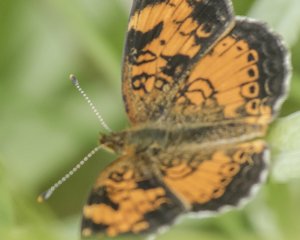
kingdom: Animalia
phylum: Arthropoda
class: Insecta
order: Lepidoptera
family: Nymphalidae
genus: Phyciodes
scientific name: Phyciodes tharos
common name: Northern Crescent
